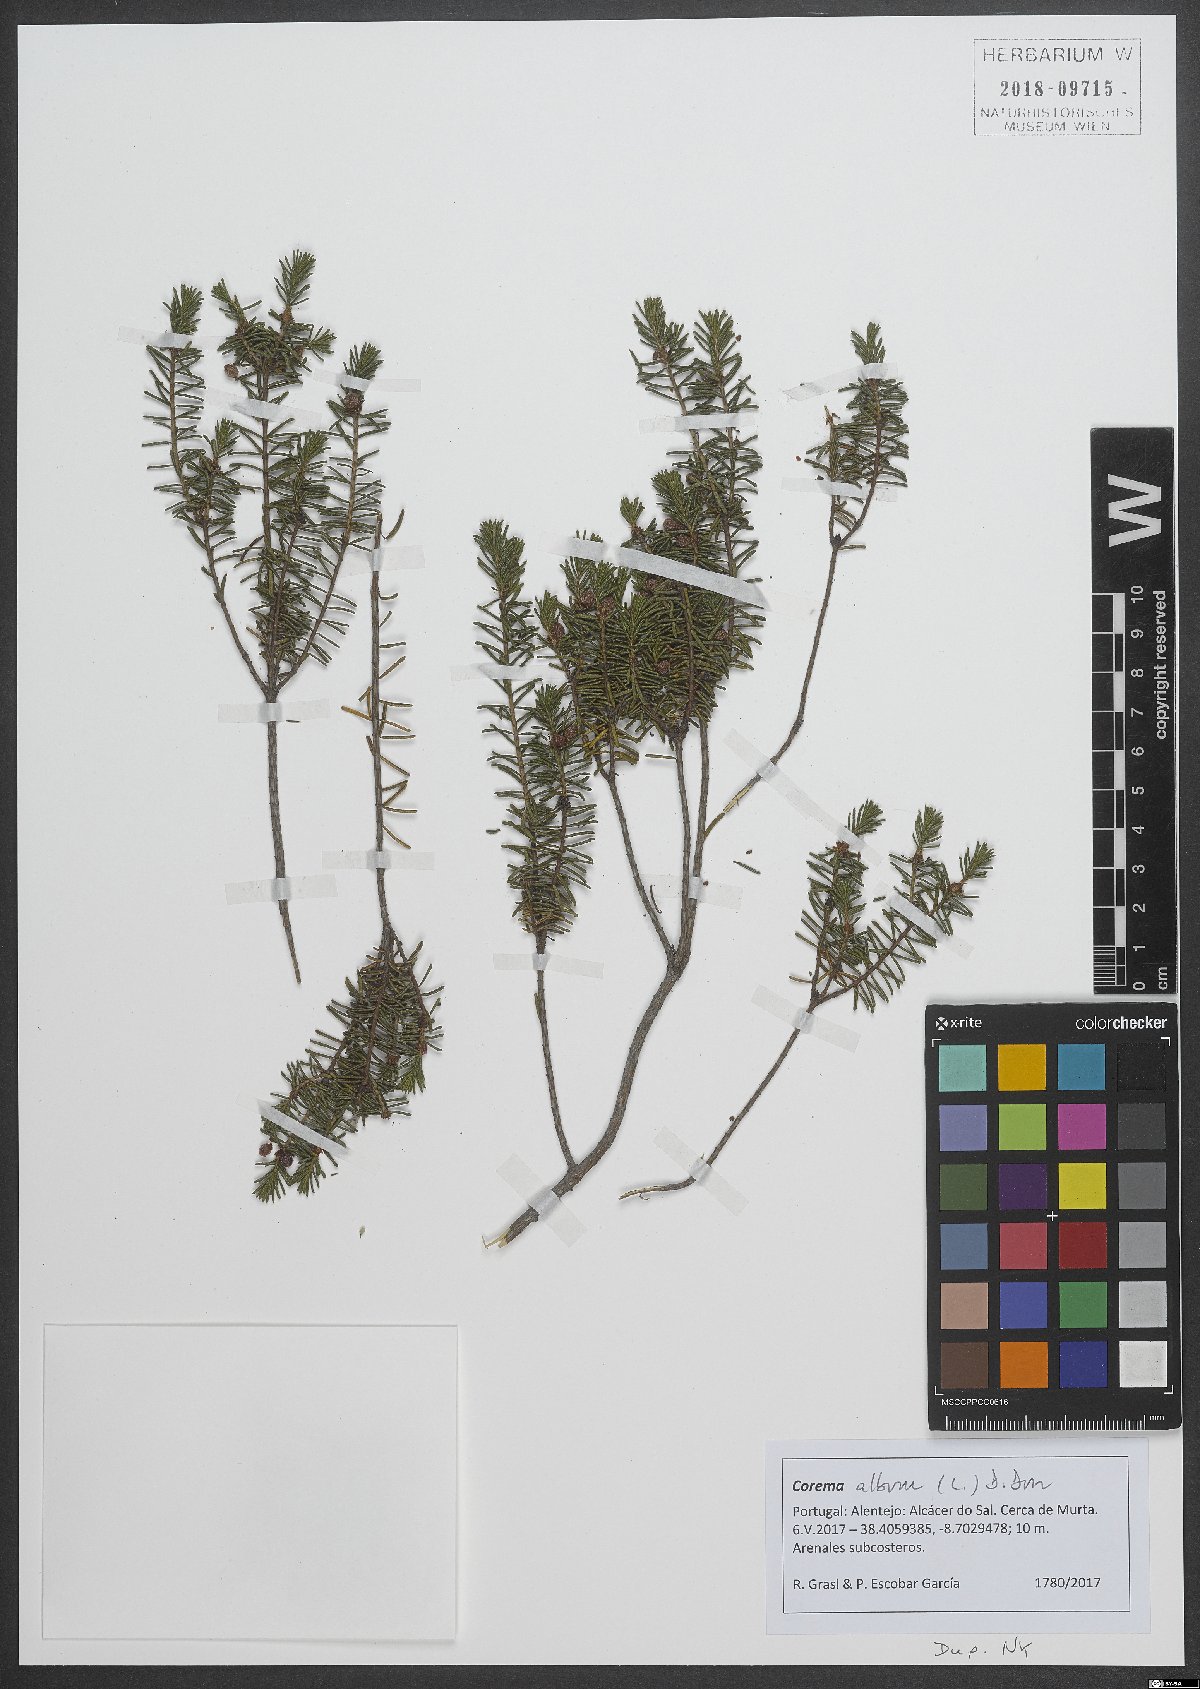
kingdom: Plantae
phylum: Tracheophyta
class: Magnoliopsida
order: Ericales
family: Ericaceae
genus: Corema
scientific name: Corema album
